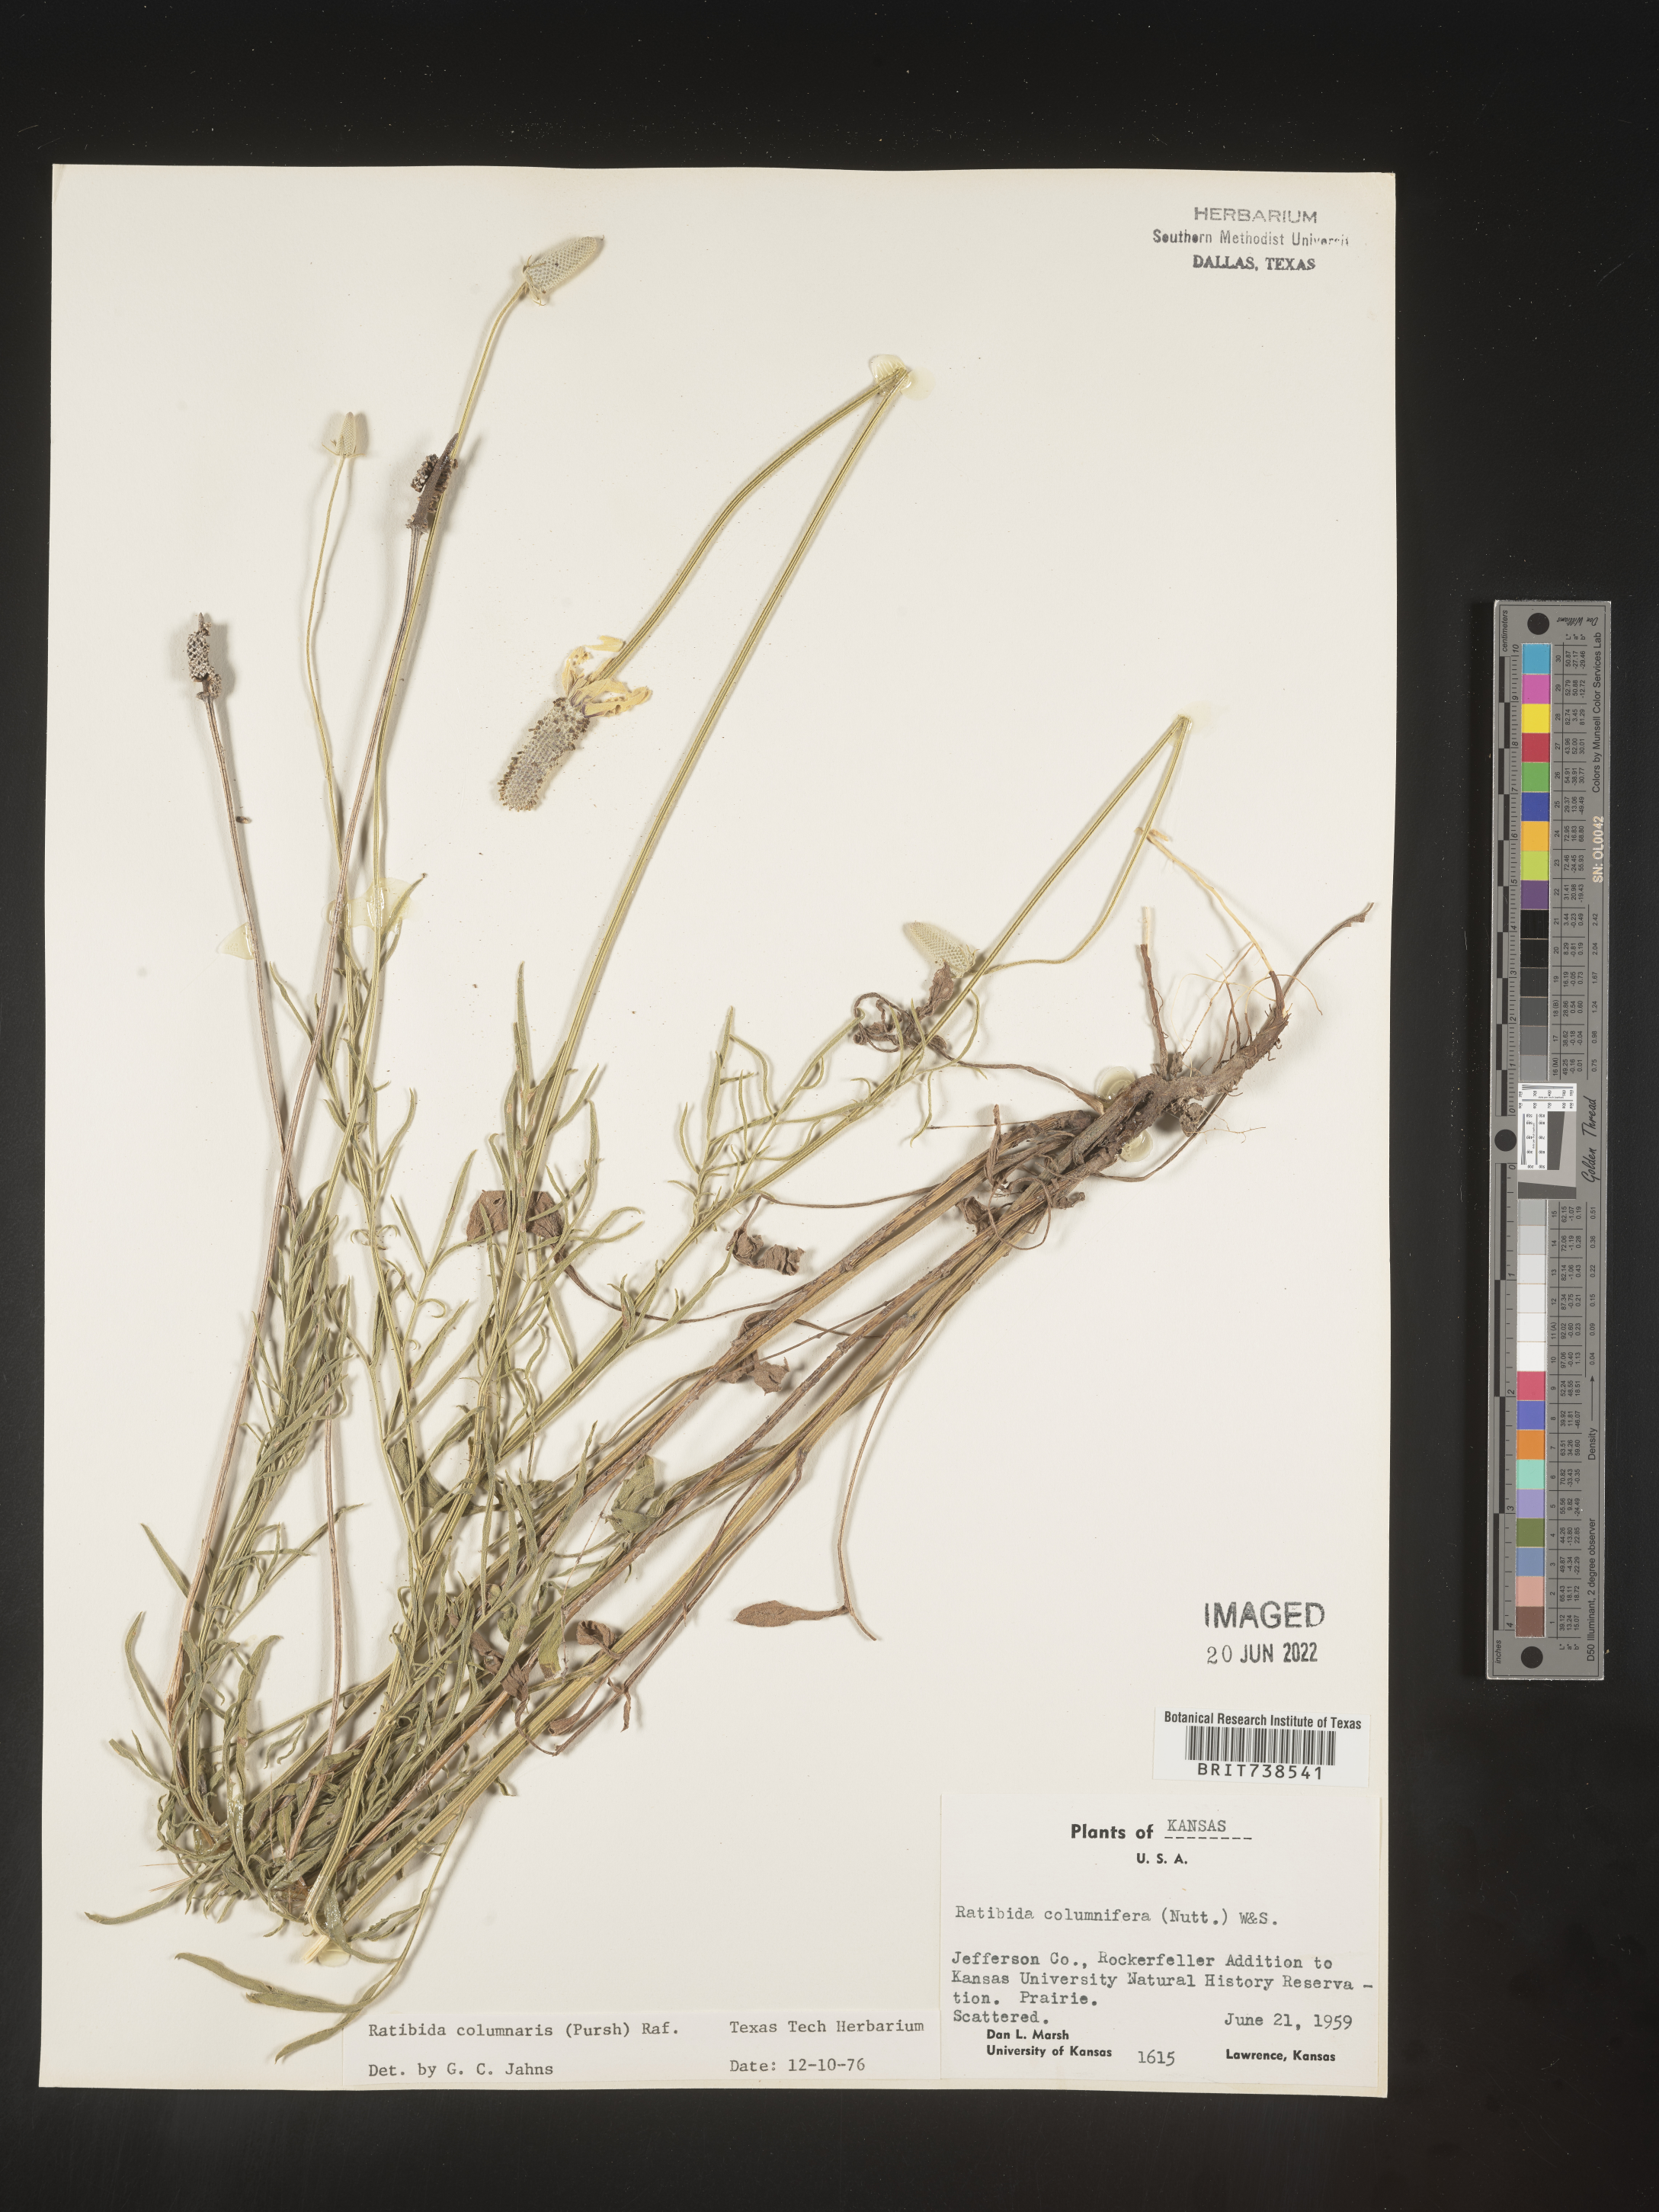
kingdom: Plantae
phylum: Tracheophyta
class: Magnoliopsida
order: Asterales
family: Asteraceae
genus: Ratibida
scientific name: Ratibida columnifera
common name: Prairie coneflower
